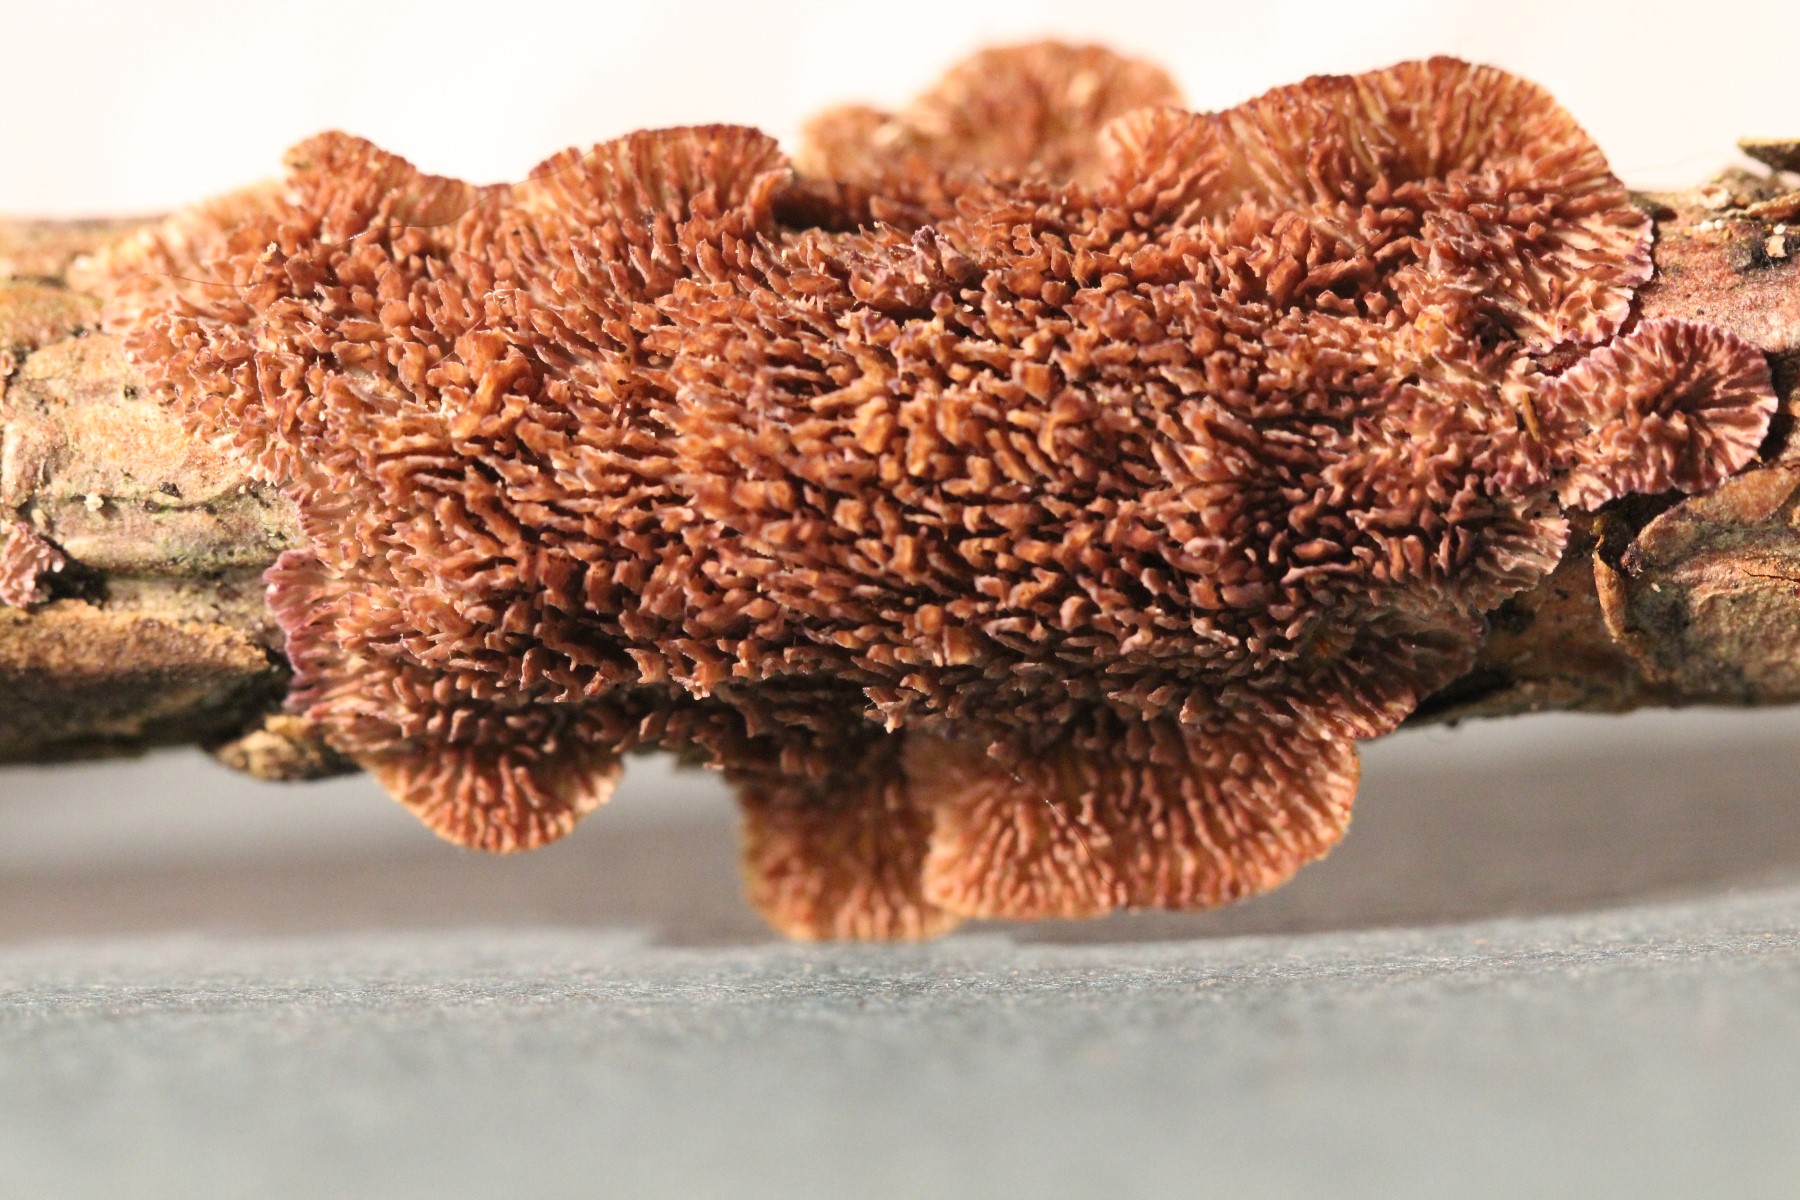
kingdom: Fungi
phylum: Basidiomycota
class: Agaricomycetes
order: Hymenochaetales
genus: Trichaptum
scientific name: Trichaptum fuscoviolaceum
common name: tandet violporesvamp
